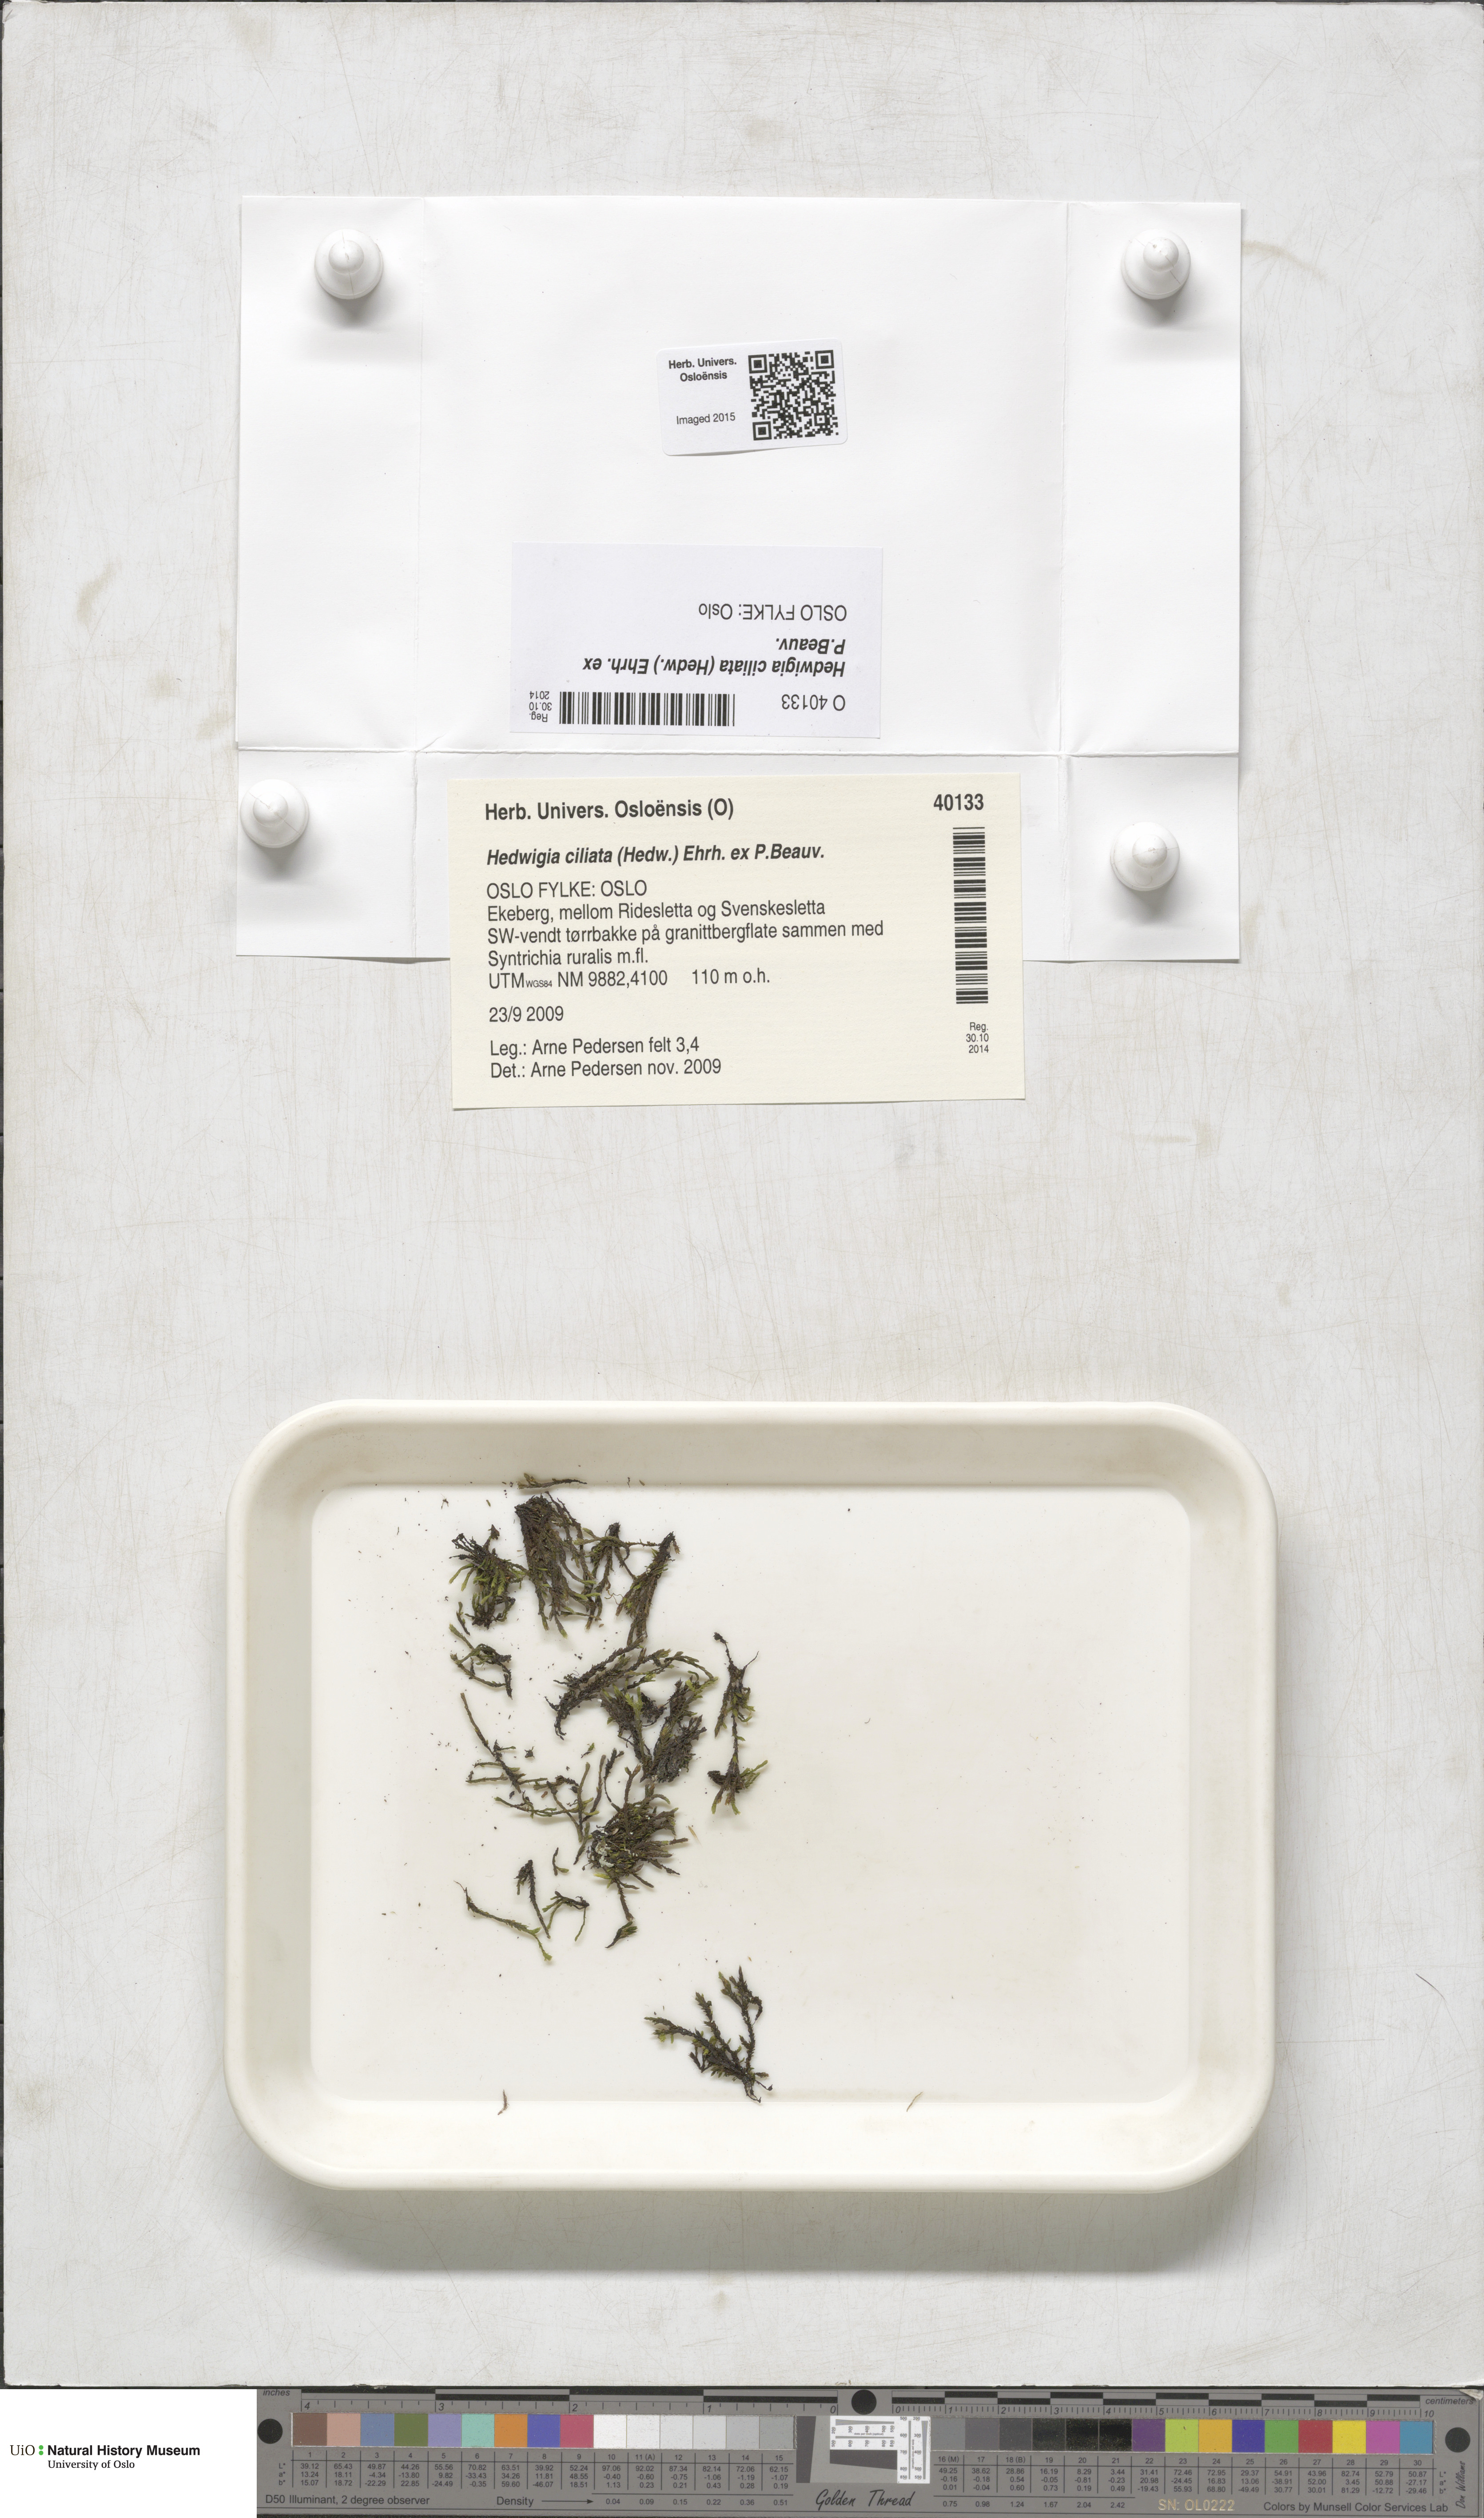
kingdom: Plantae
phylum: Bryophyta
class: Bryopsida
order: Hedwigiales
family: Hedwigiaceae
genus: Hedwigia
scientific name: Hedwigia ciliata
